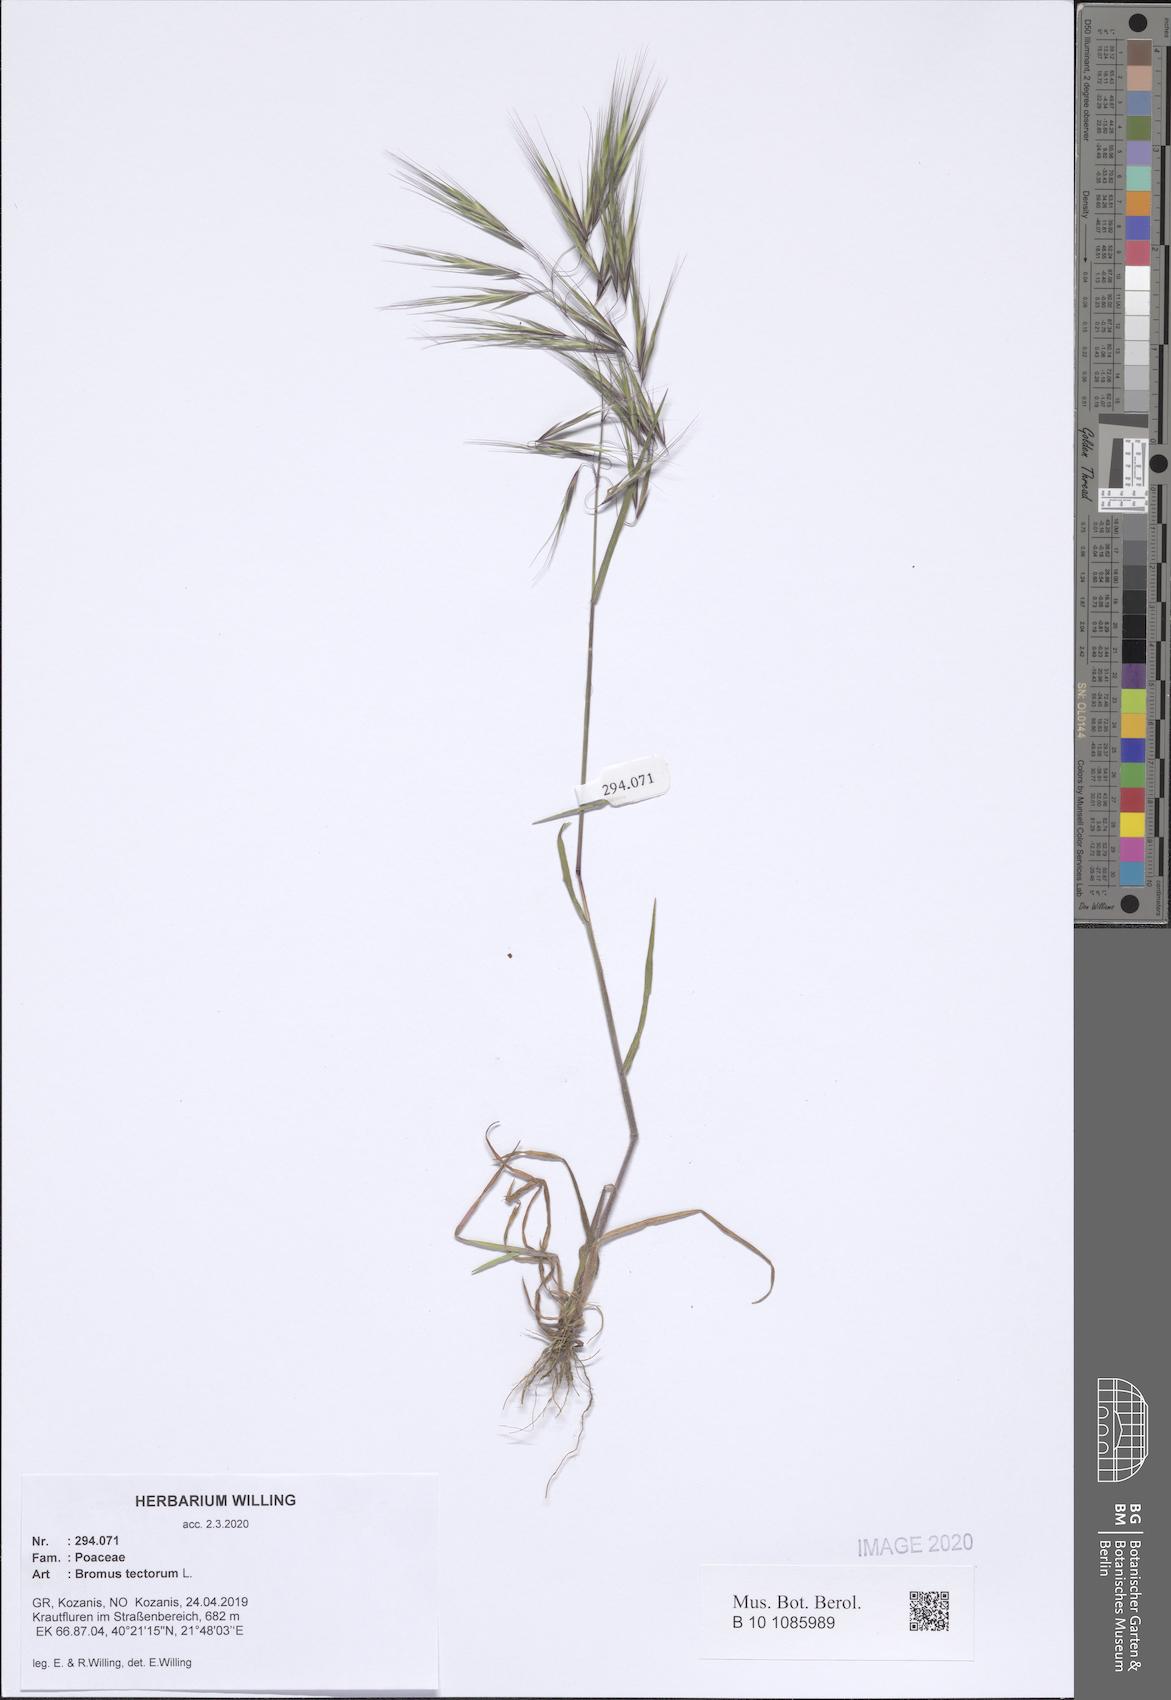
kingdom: Plantae
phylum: Tracheophyta
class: Liliopsida
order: Poales
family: Poaceae
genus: Bromus
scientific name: Bromus tectorum
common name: Cheatgrass
